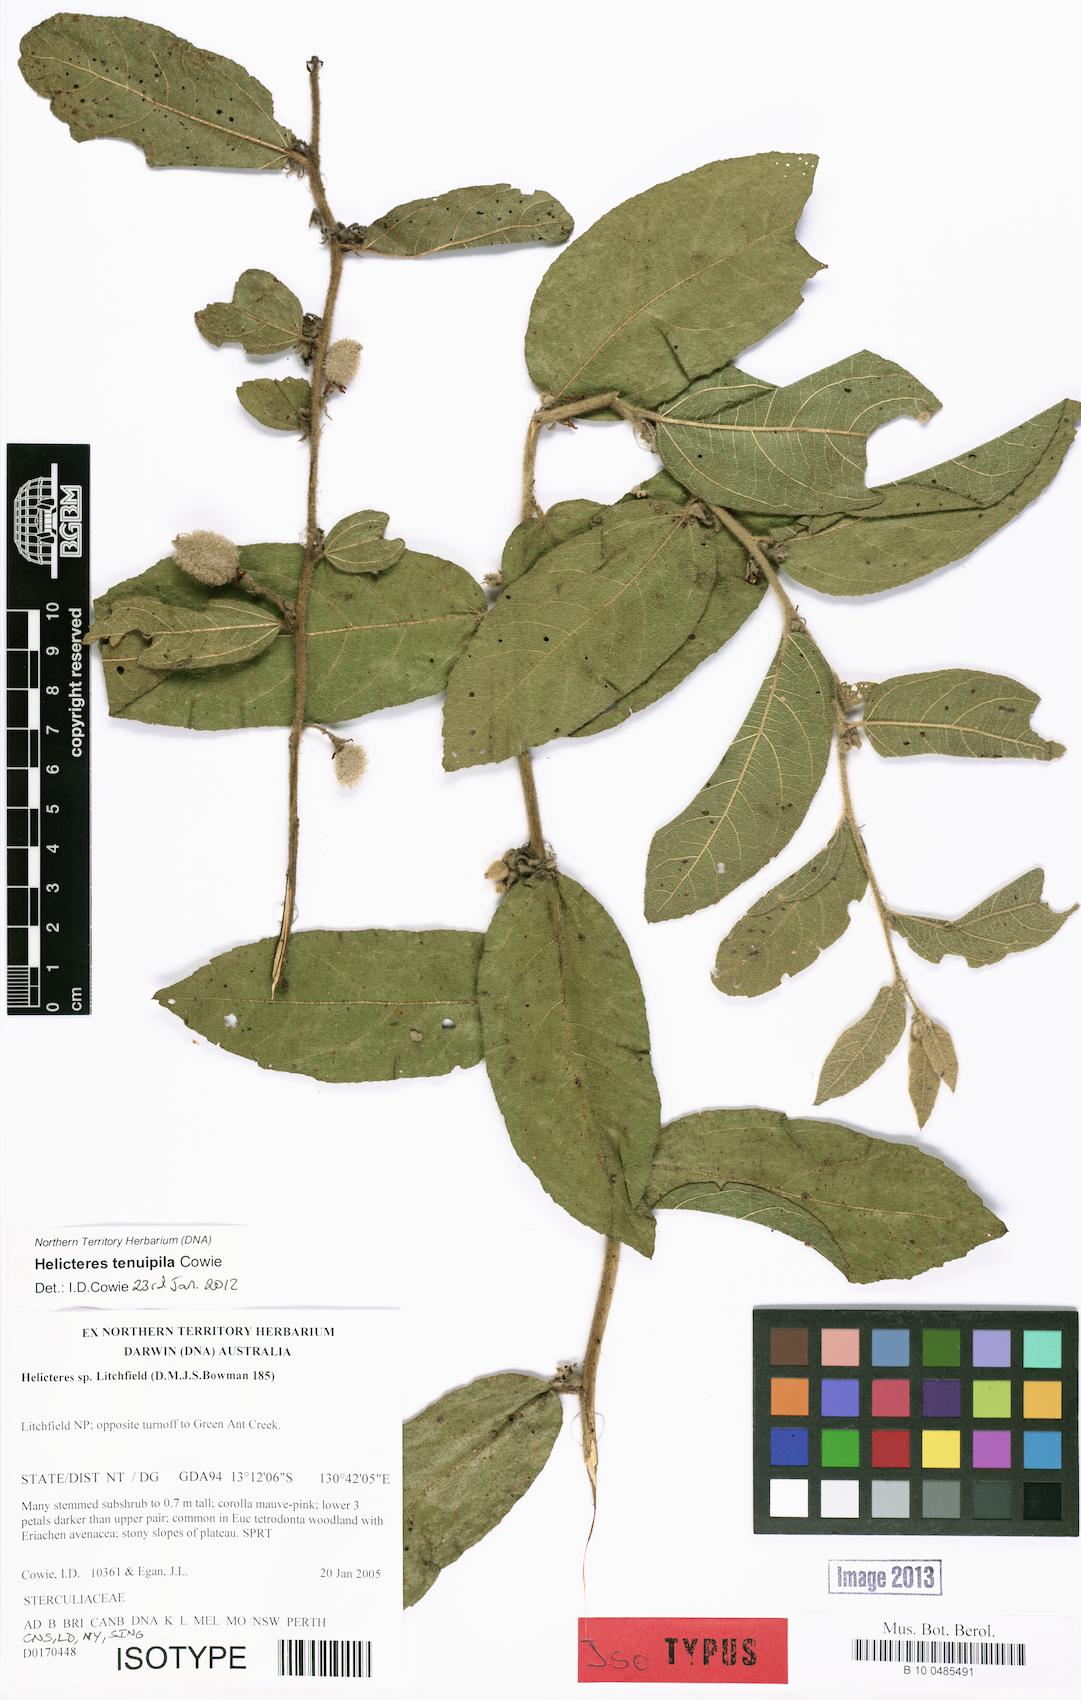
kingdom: Plantae
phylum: Tracheophyta
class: Magnoliopsida
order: Malvales
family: Malvaceae
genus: Helicteres
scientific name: Helicteres tenuipila
